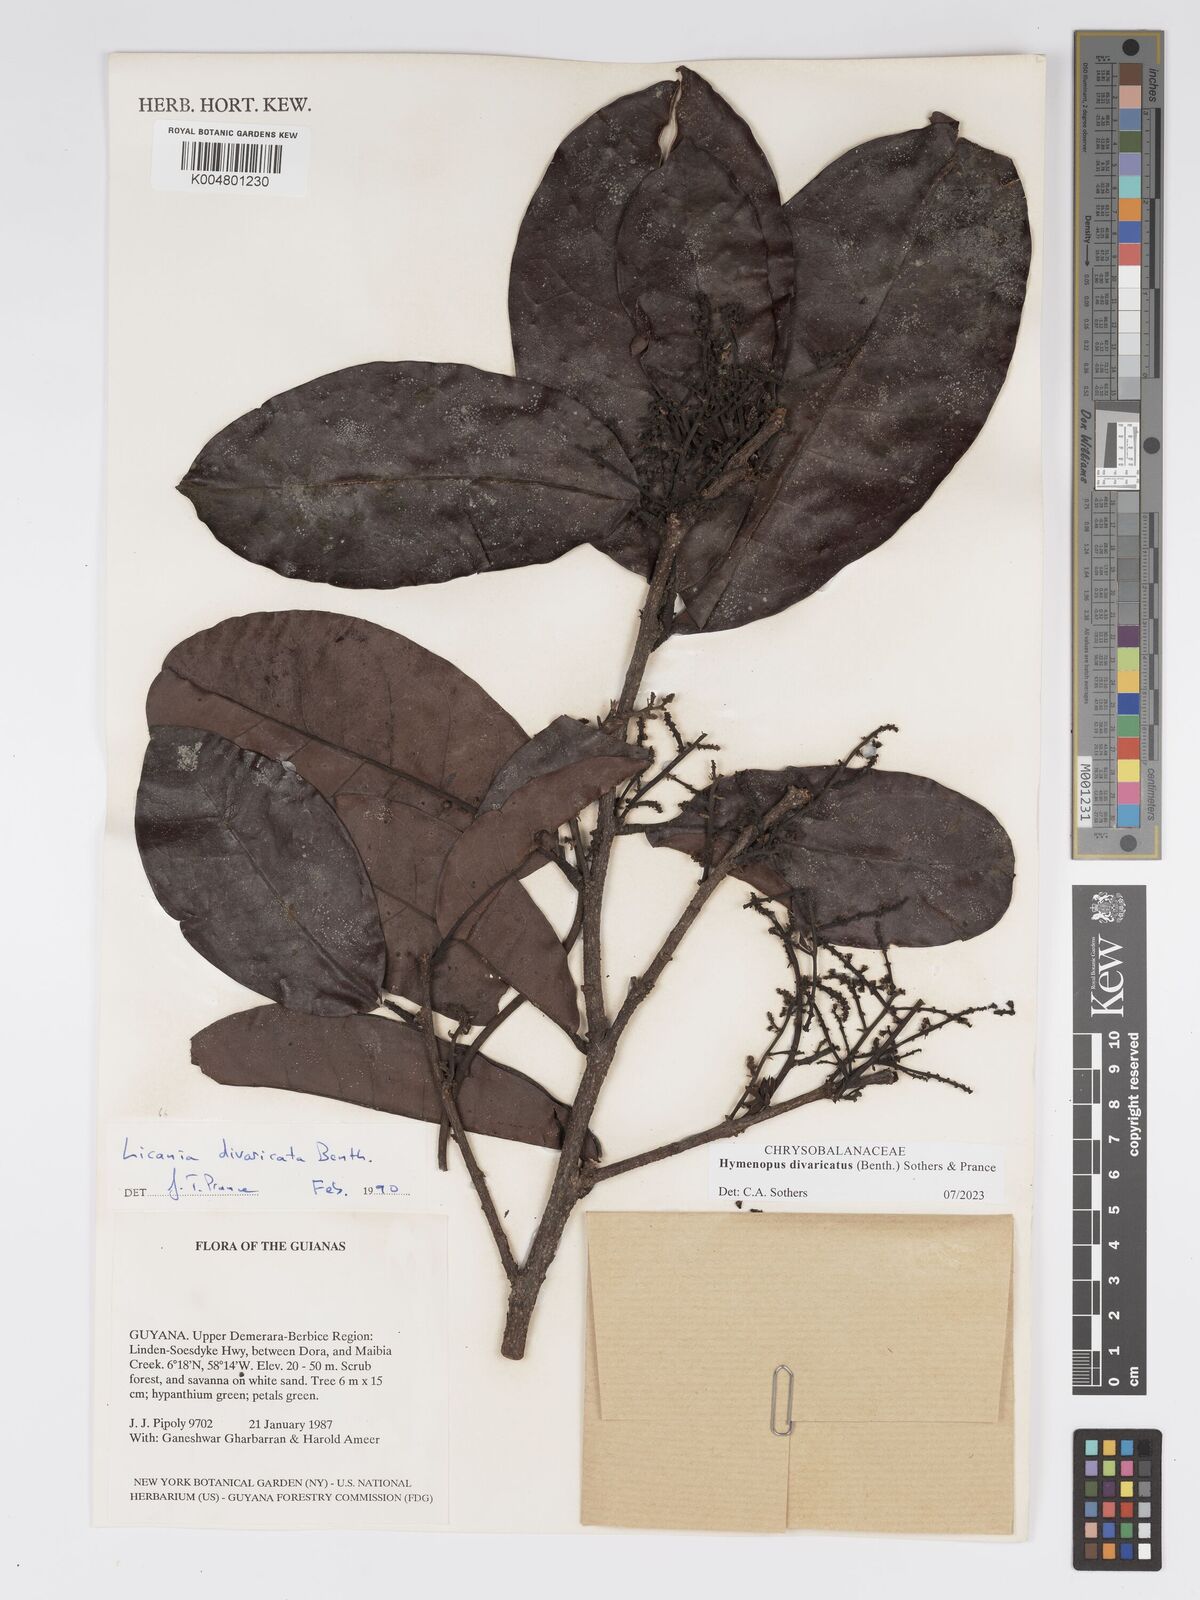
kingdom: Plantae
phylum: Tracheophyta
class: Magnoliopsida
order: Malpighiales
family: Chrysobalanaceae
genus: Hymenopus
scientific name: Hymenopus divaricatus
